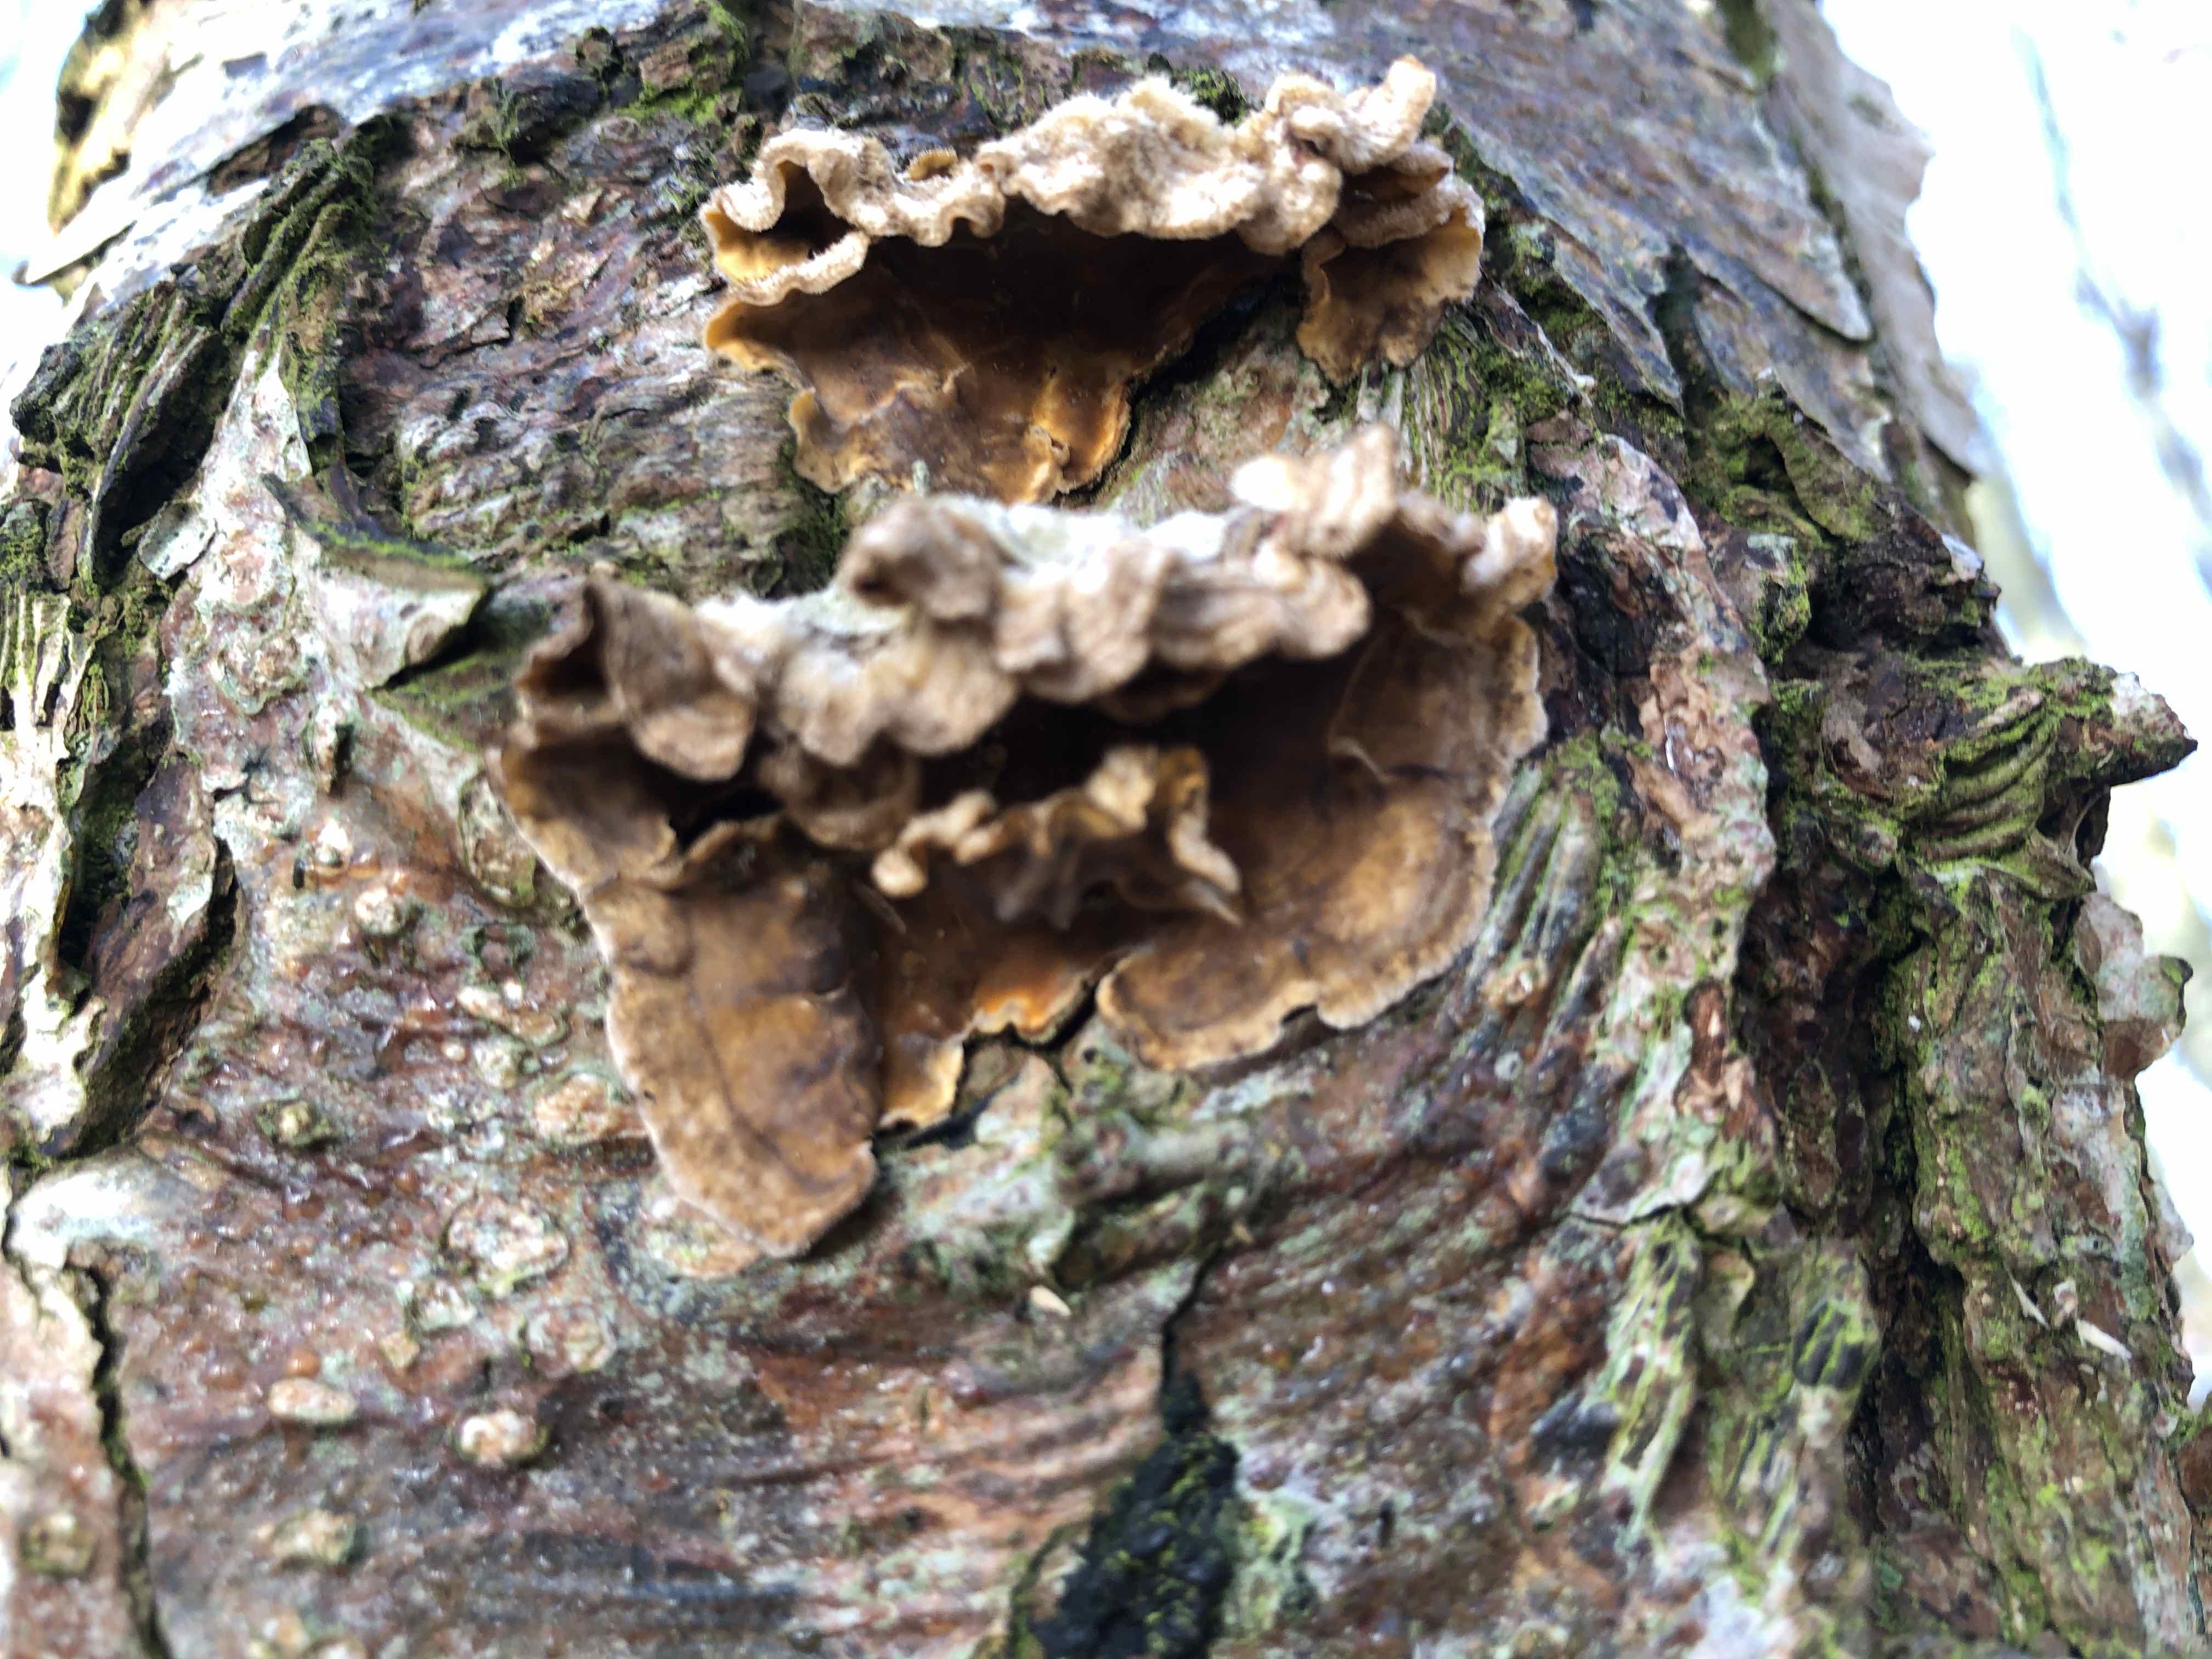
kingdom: Fungi
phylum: Basidiomycota
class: Agaricomycetes
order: Russulales
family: Stereaceae
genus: Stereum
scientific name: Stereum hirsutum
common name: håret lædersvamp
